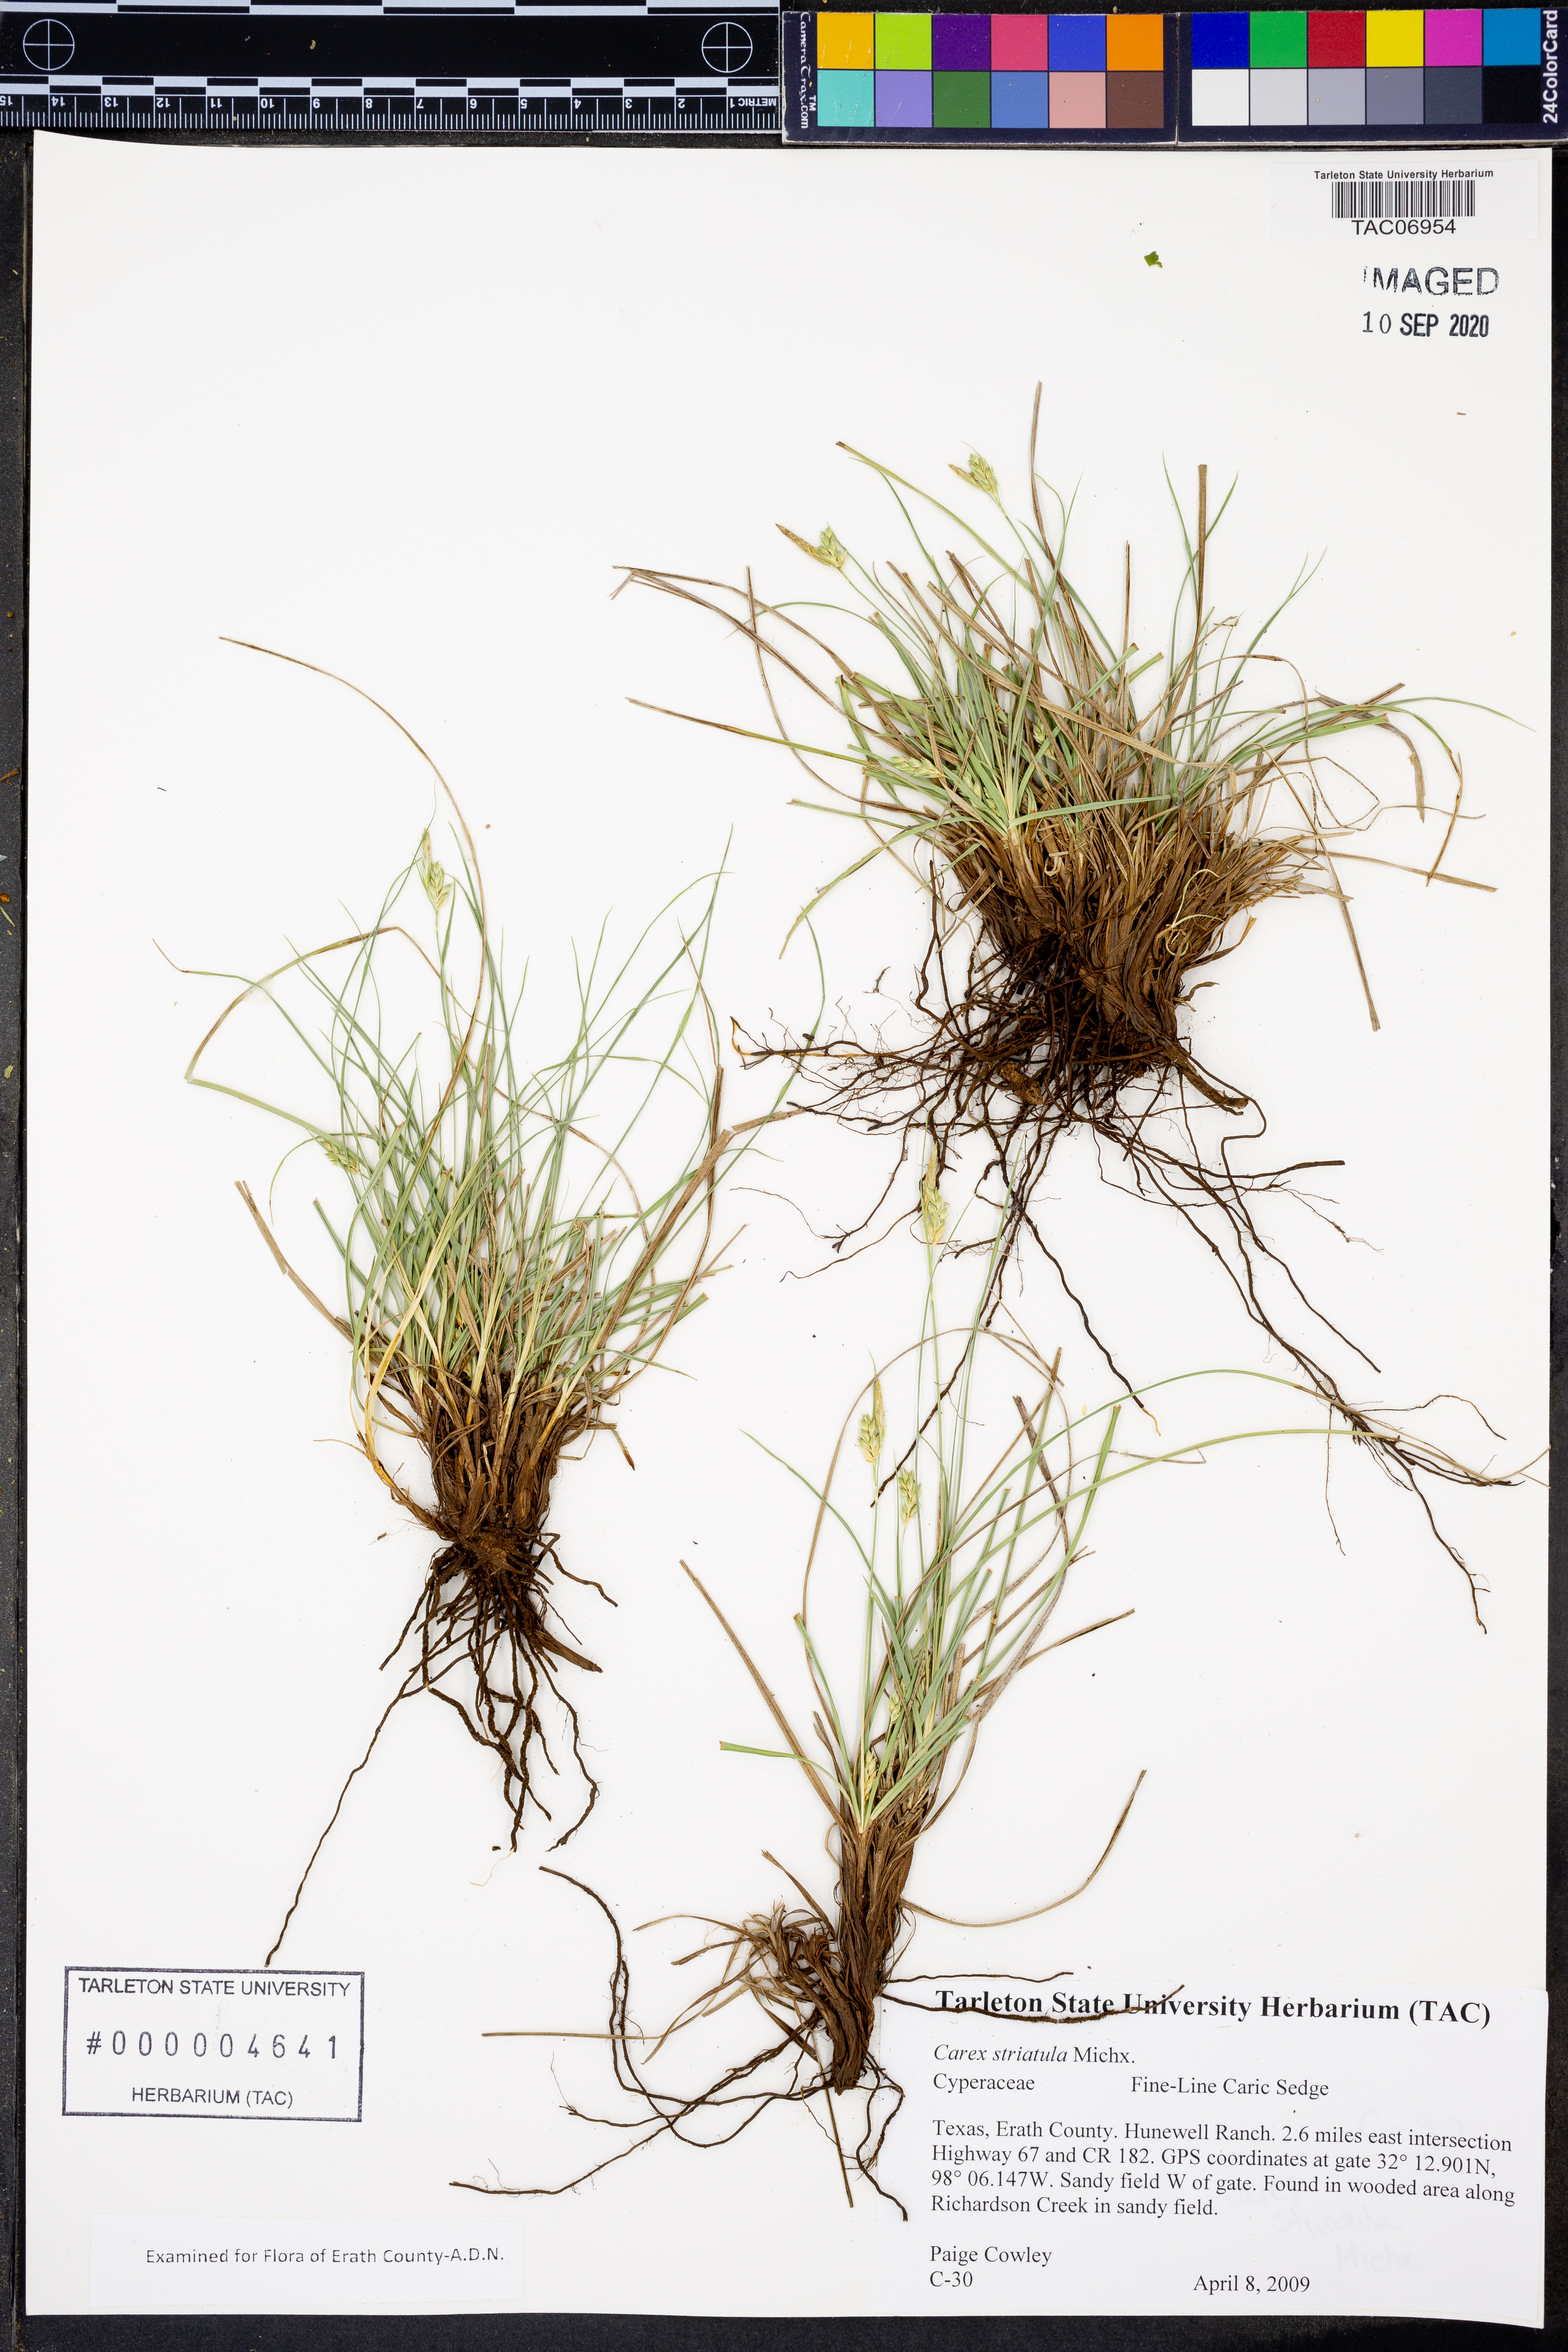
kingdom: Plantae
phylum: Tracheophyta
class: Liliopsida
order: Poales
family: Cyperaceae
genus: Carex
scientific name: Carex striatula
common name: Lined sedge
